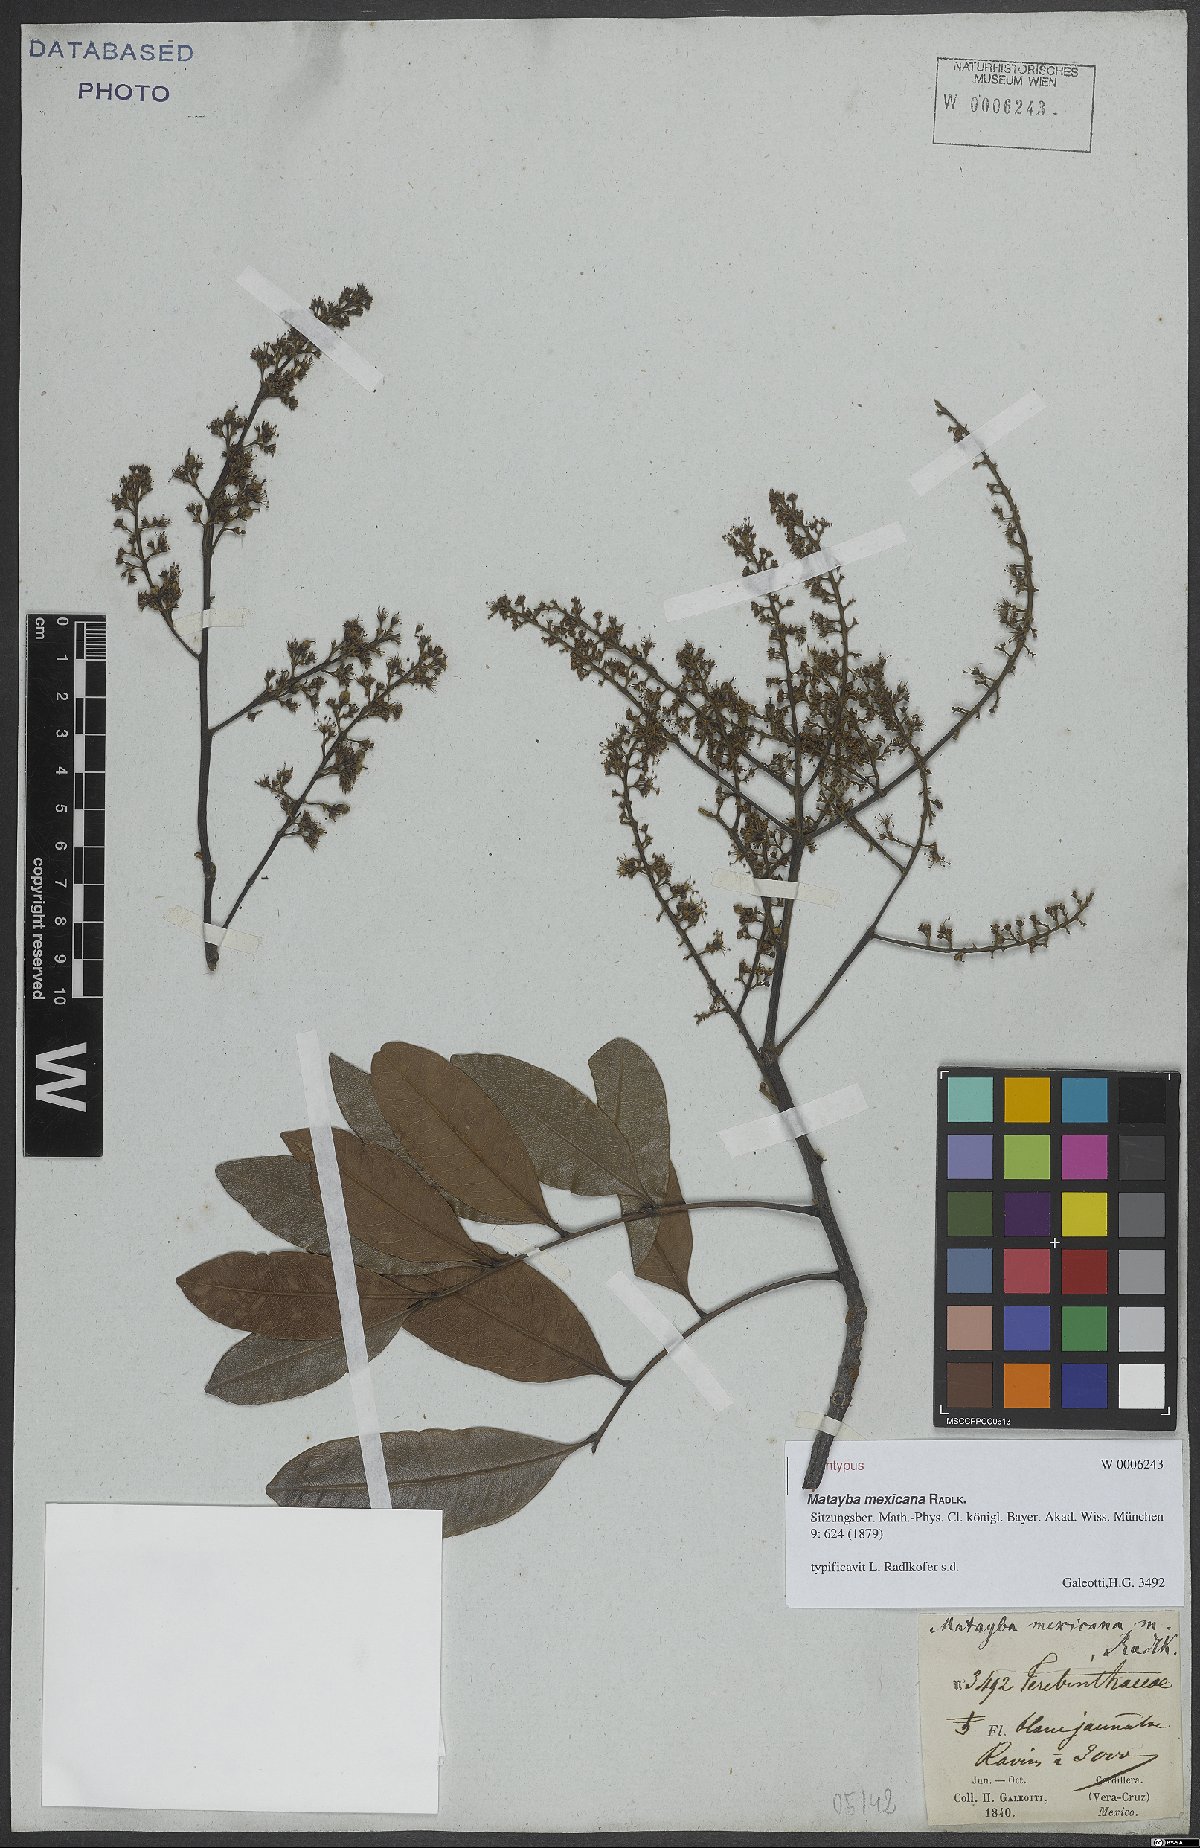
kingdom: Plantae
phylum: Tracheophyta
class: Magnoliopsida
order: Sapindales
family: Sapindaceae
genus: Matayba
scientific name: Matayba mexicana
